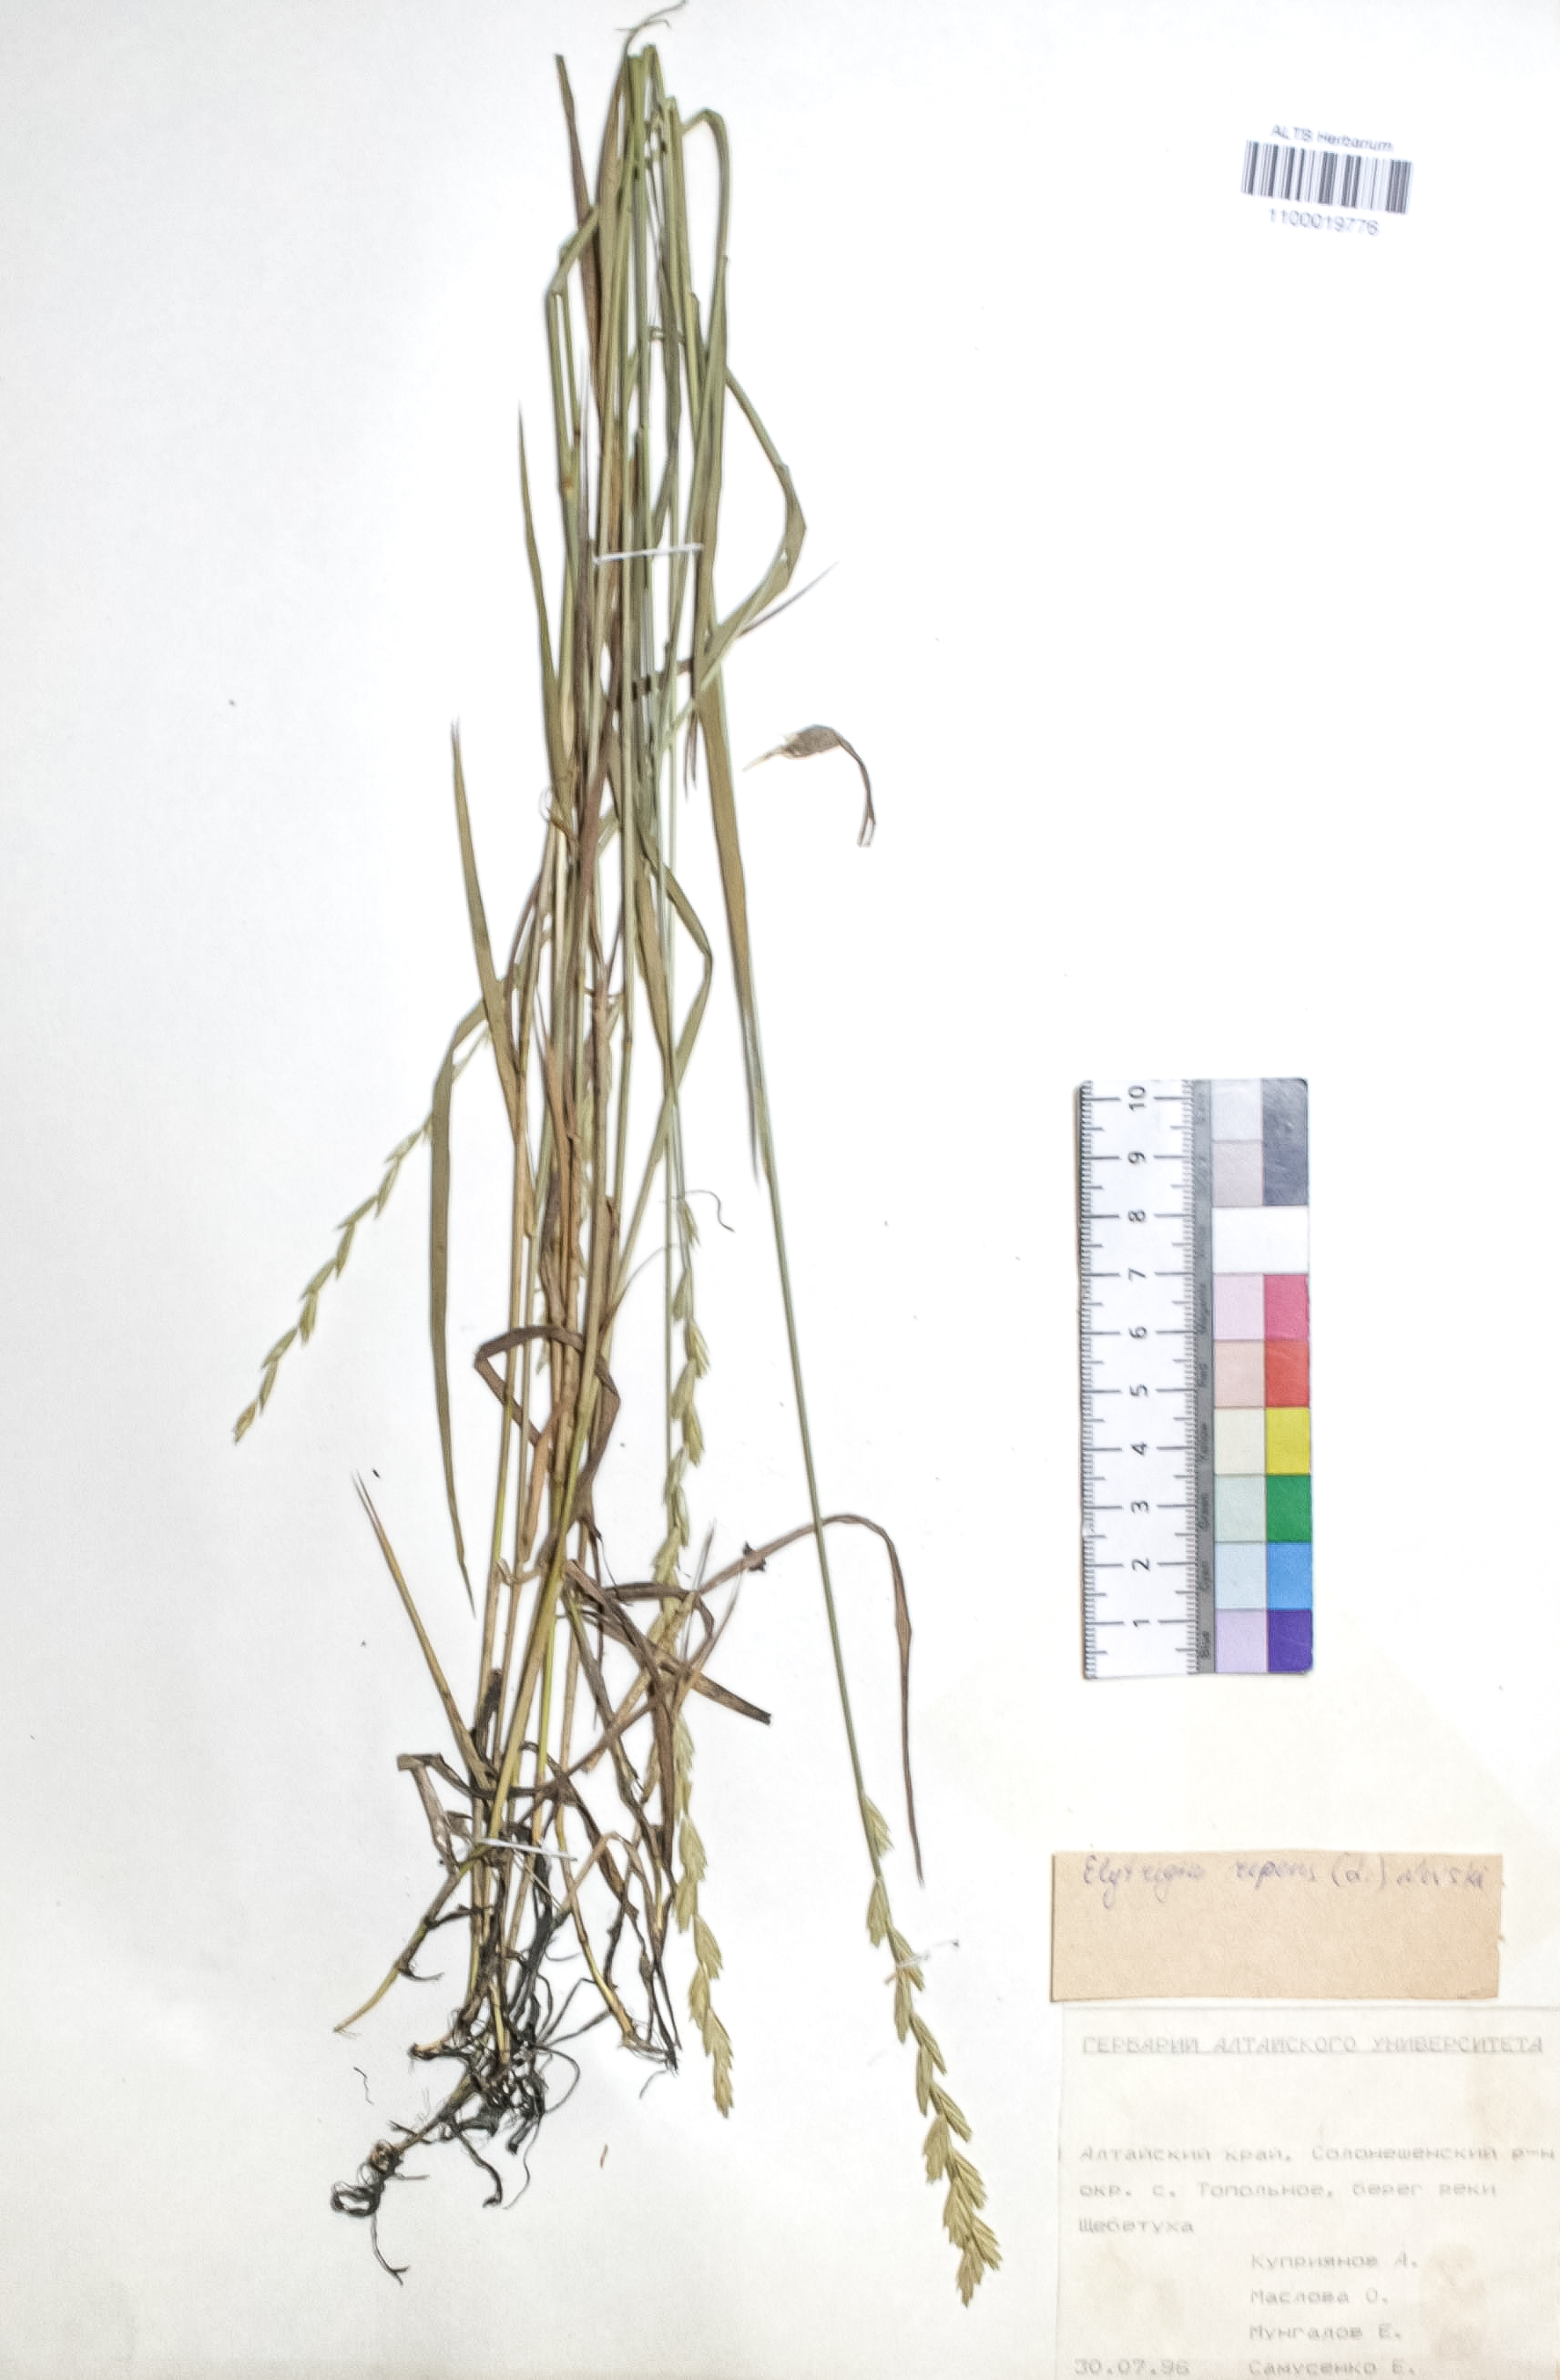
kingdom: Plantae
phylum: Tracheophyta
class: Liliopsida
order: Poales
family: Poaceae
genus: Elymus
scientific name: Elymus repens
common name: Quackgrass
